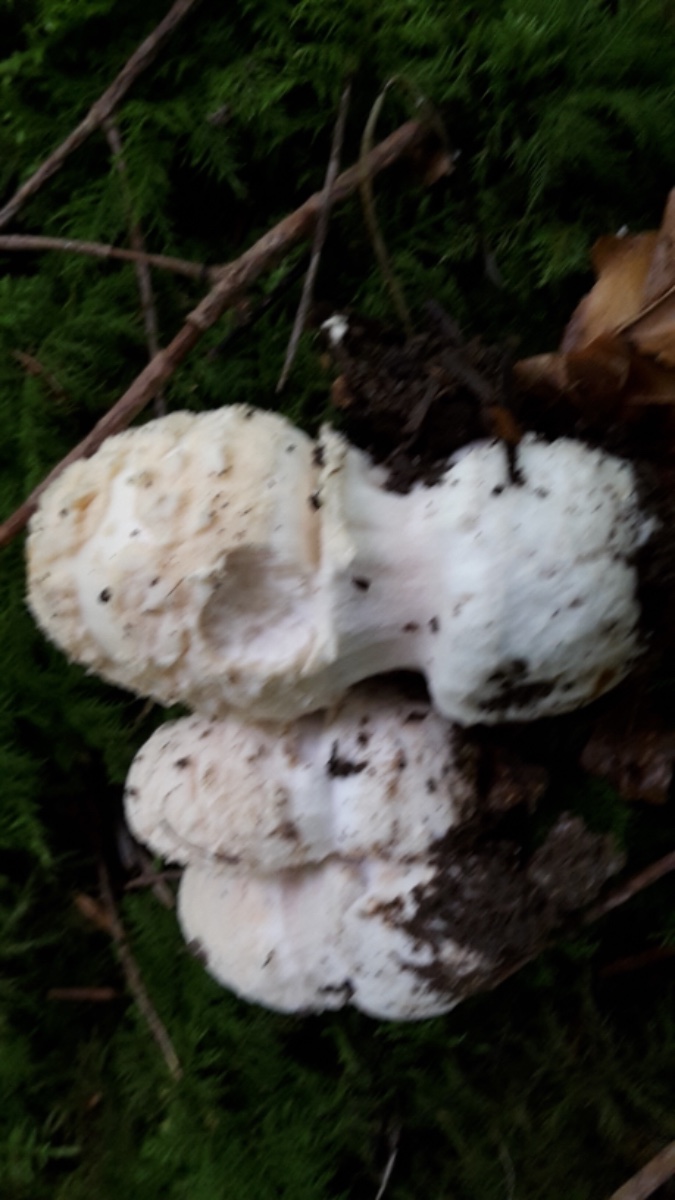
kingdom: Fungi
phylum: Basidiomycota
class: Agaricomycetes
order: Agaricales
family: Amanitaceae
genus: Amanita
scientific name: Amanita ceciliae
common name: stor kam-fluesvamp
